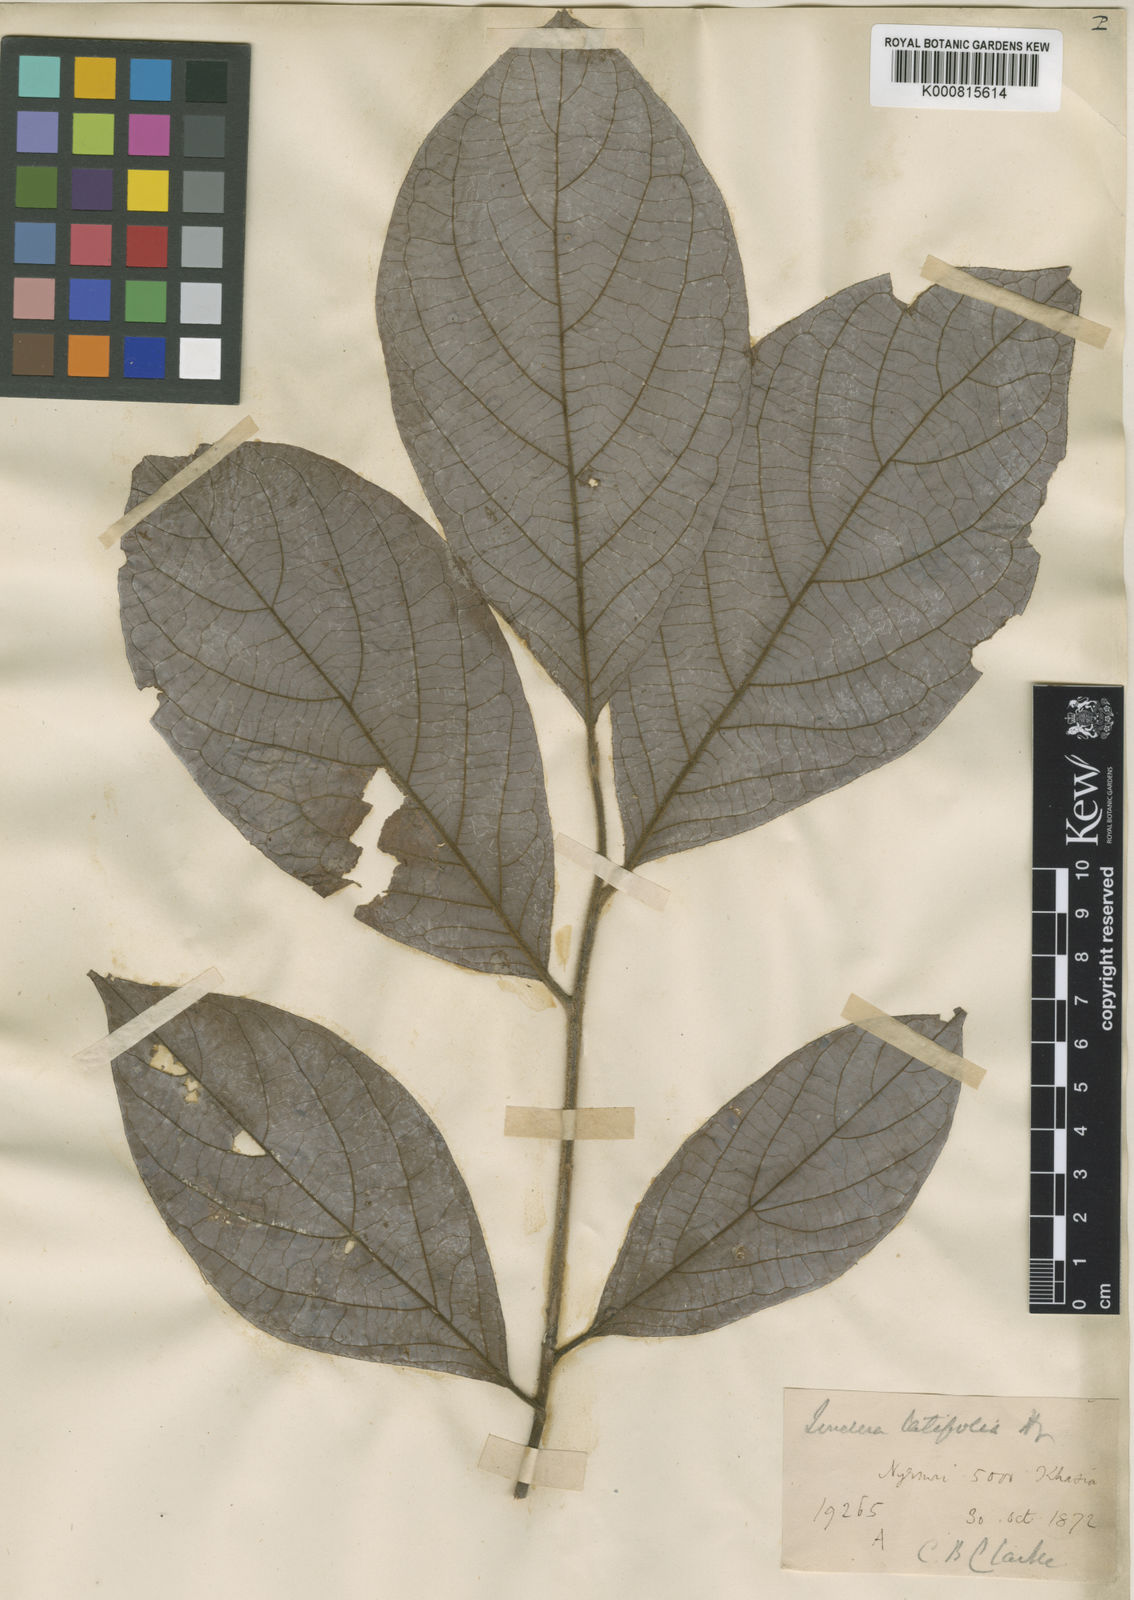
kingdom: Plantae
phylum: Tracheophyta
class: Magnoliopsida
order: Laurales
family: Lauraceae
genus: Lindera
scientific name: Lindera latifolia
